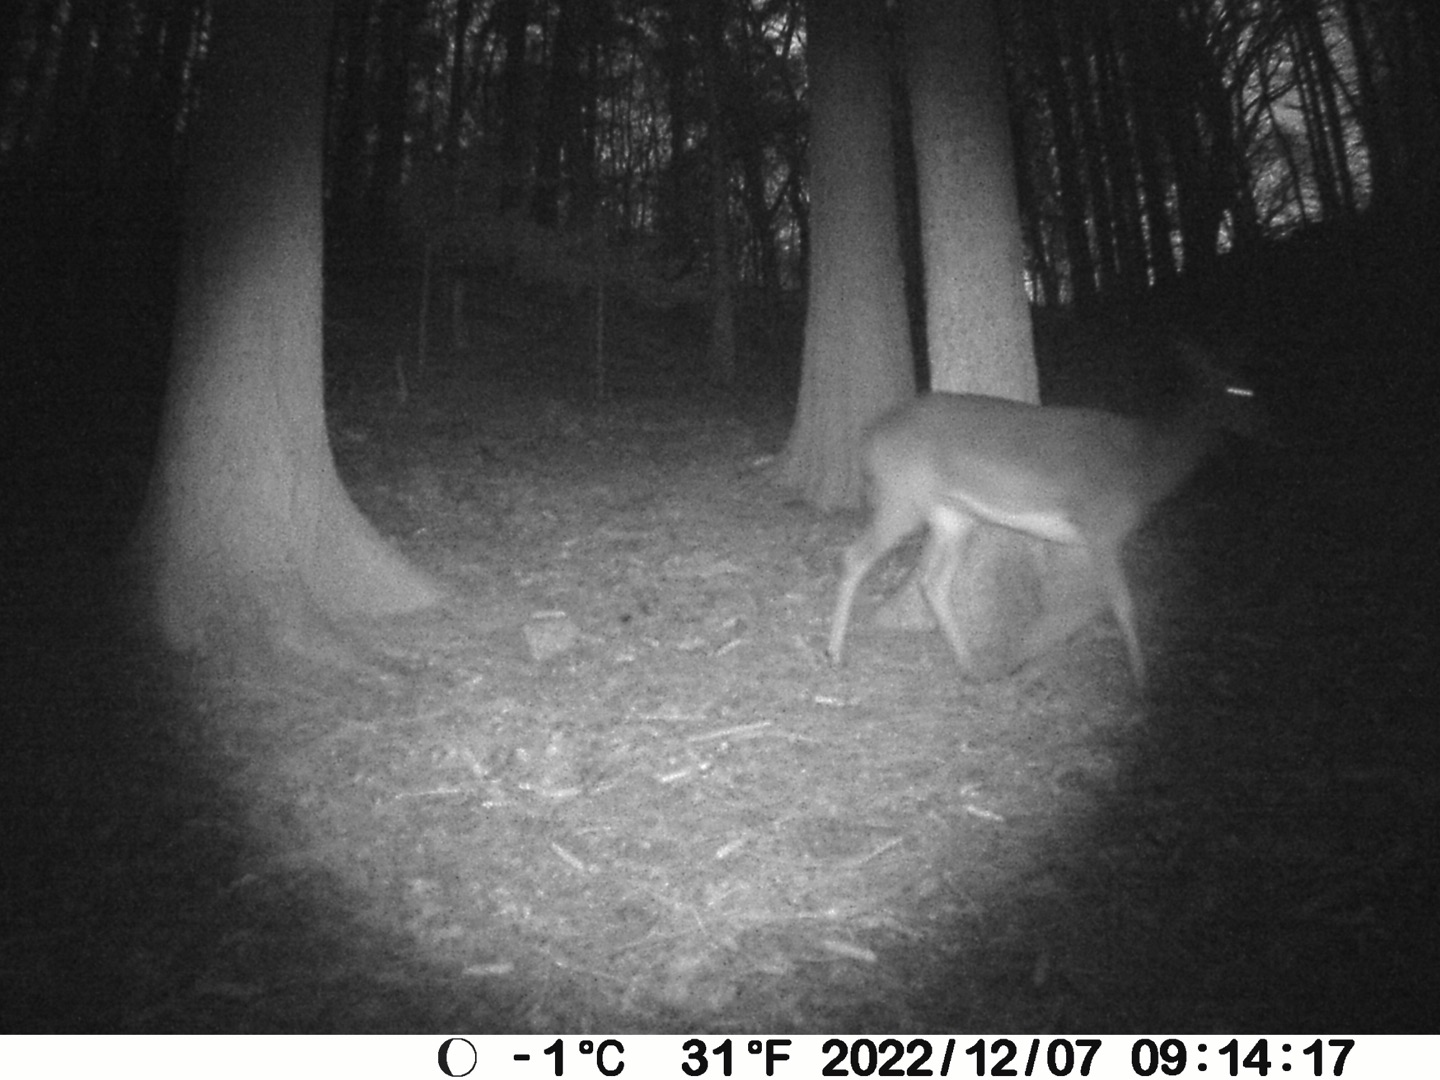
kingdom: Animalia
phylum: Chordata
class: Mammalia
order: Artiodactyla
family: Cervidae
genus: Capreolus
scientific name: Capreolus capreolus
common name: Rådyr
